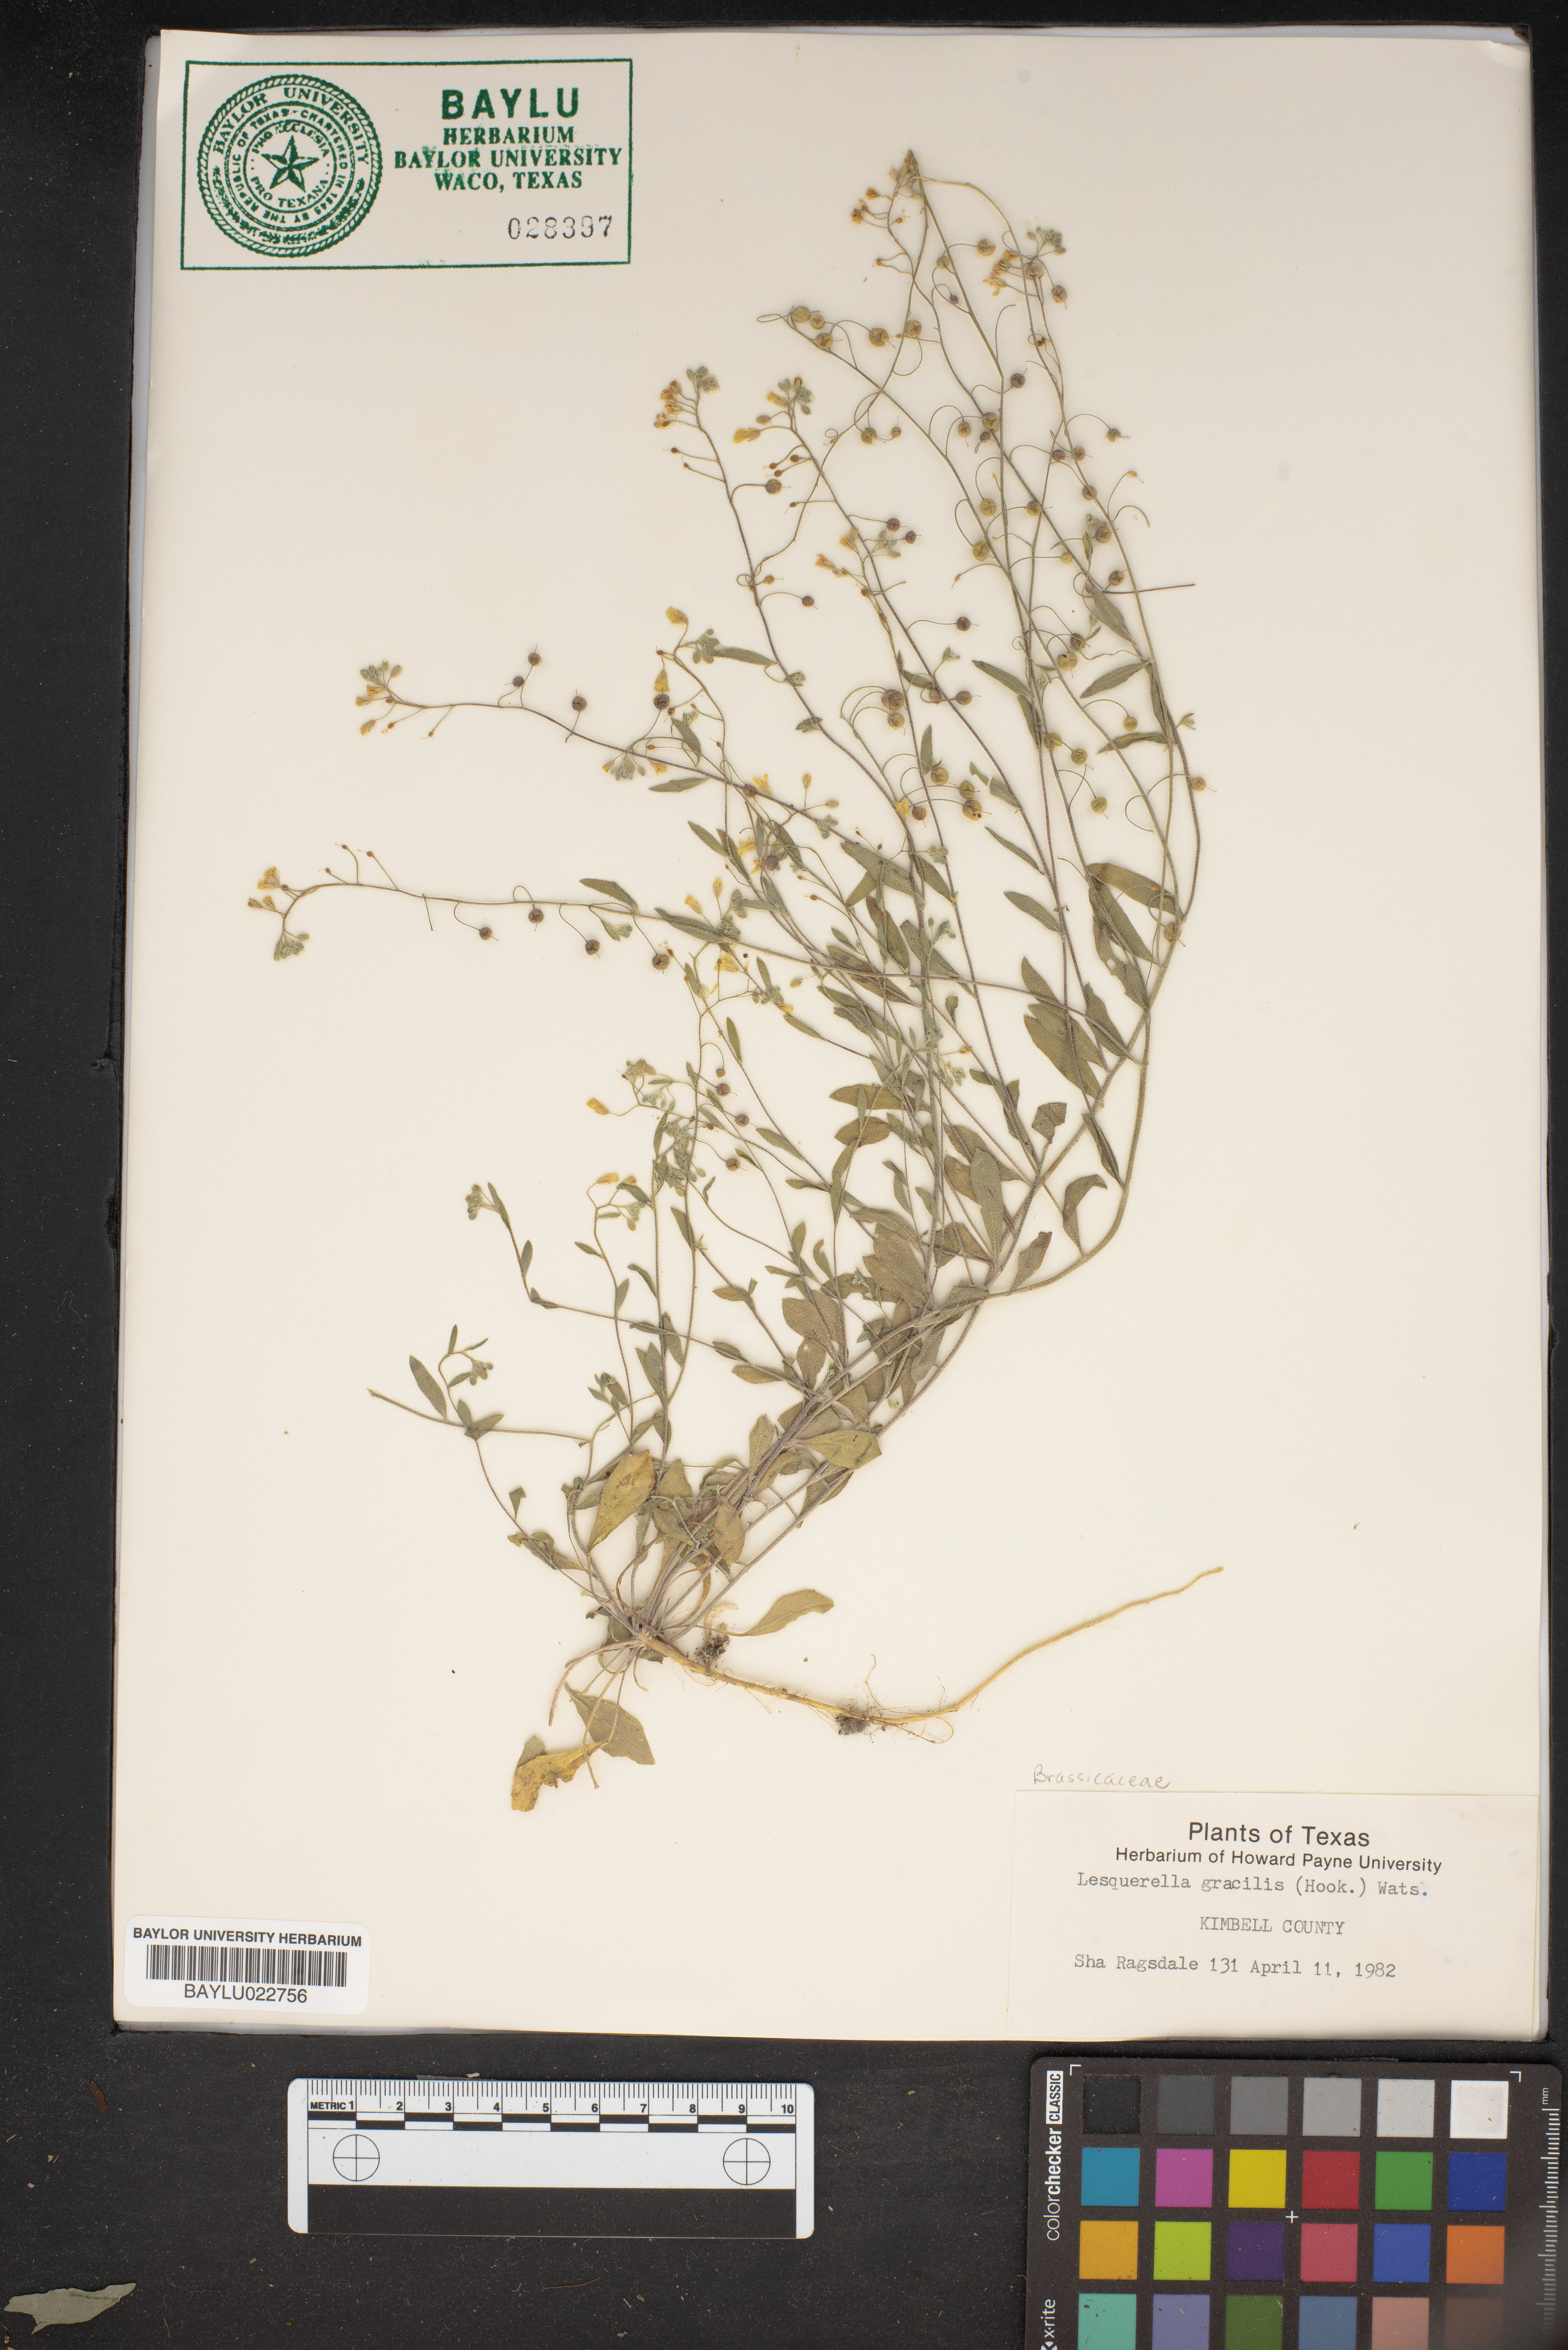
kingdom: Plantae
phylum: Tracheophyta
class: Magnoliopsida
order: Brassicales
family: Brassicaceae
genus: Physaria
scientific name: Physaria gracilis
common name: Spreading bladderpod
